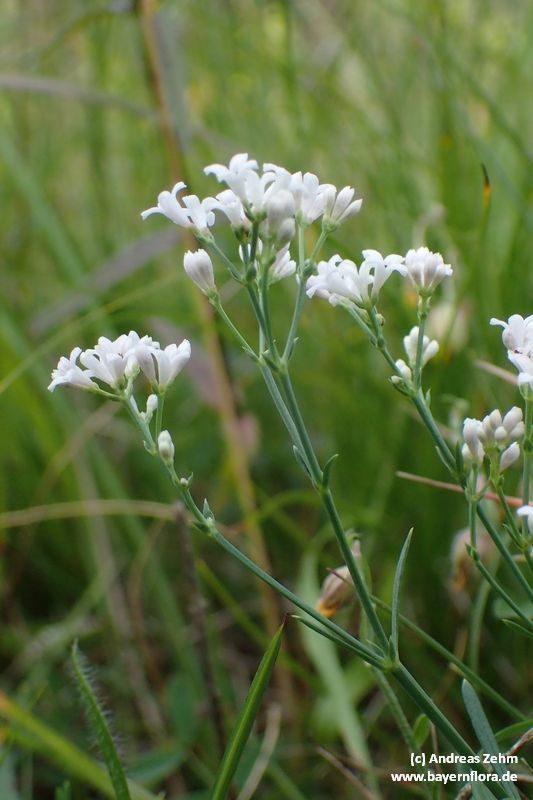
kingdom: Plantae
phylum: Tracheophyta
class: Magnoliopsida
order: Gentianales
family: Rubiaceae
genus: Cynanchica
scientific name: Cynanchica pyrenaica
